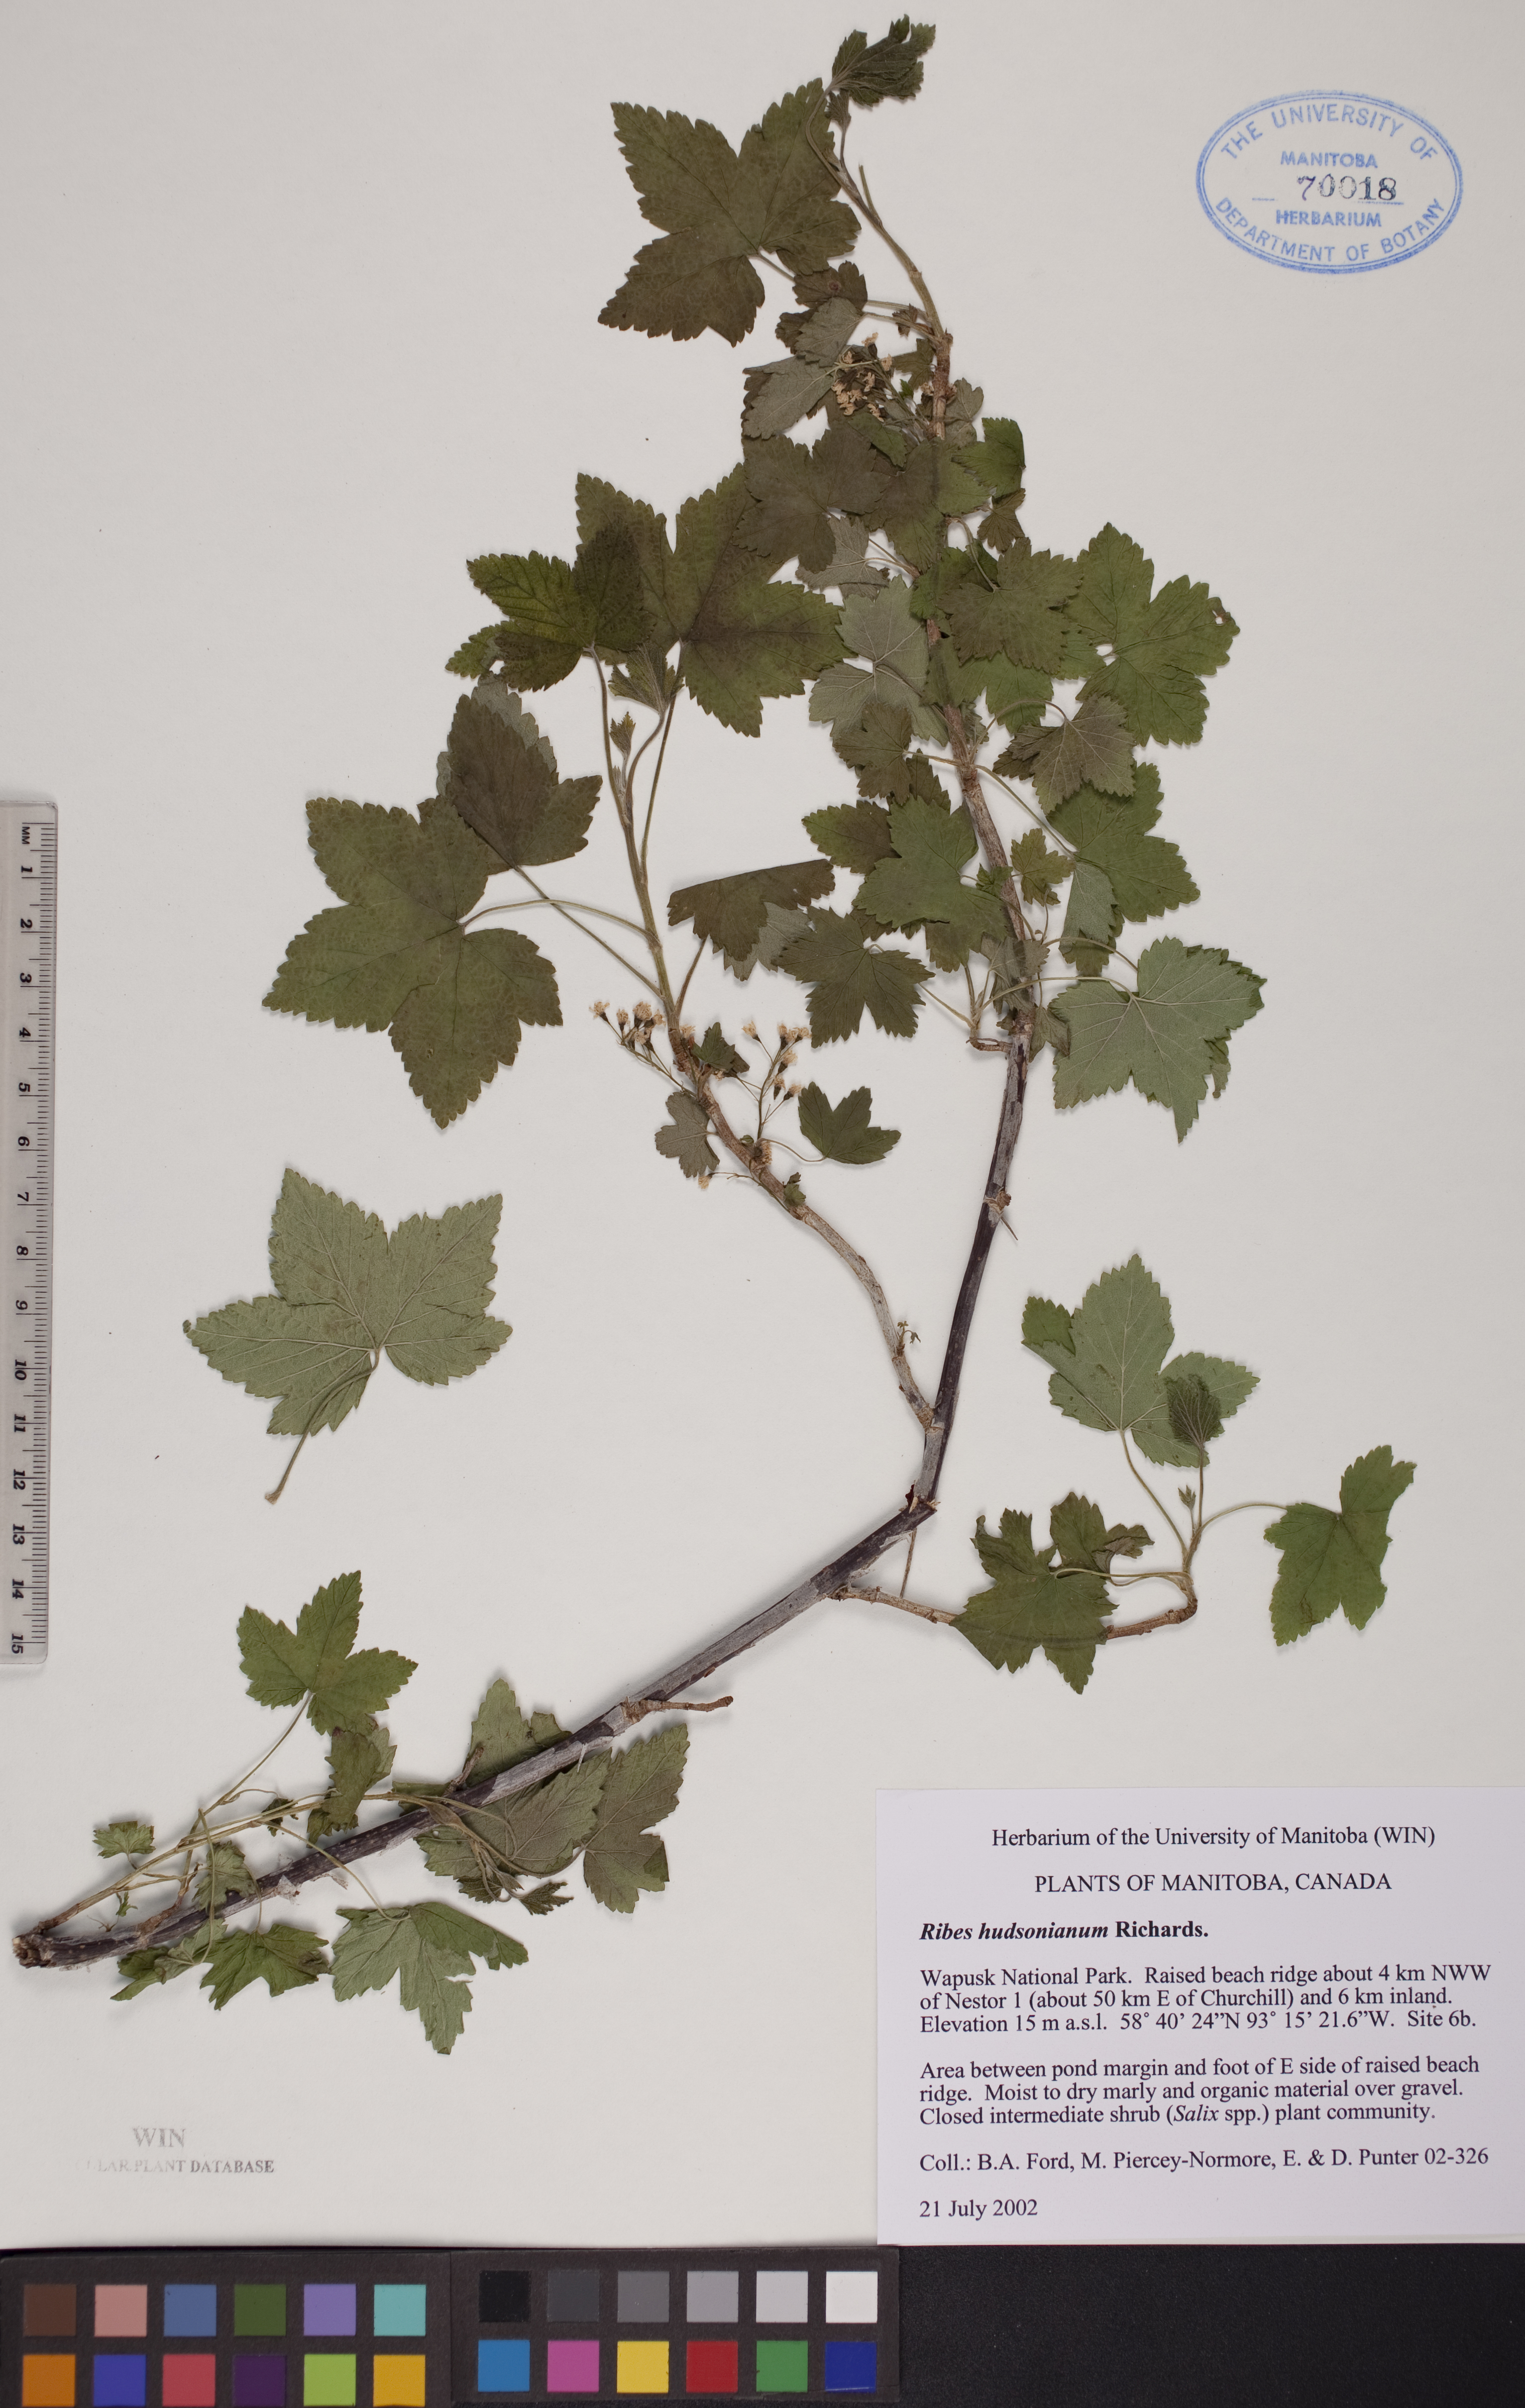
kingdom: Plantae
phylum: Tracheophyta
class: Magnoliopsida
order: Saxifragales
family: Grossulariaceae
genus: Ribes
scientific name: Ribes hudsonianum
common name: Northern black currant
